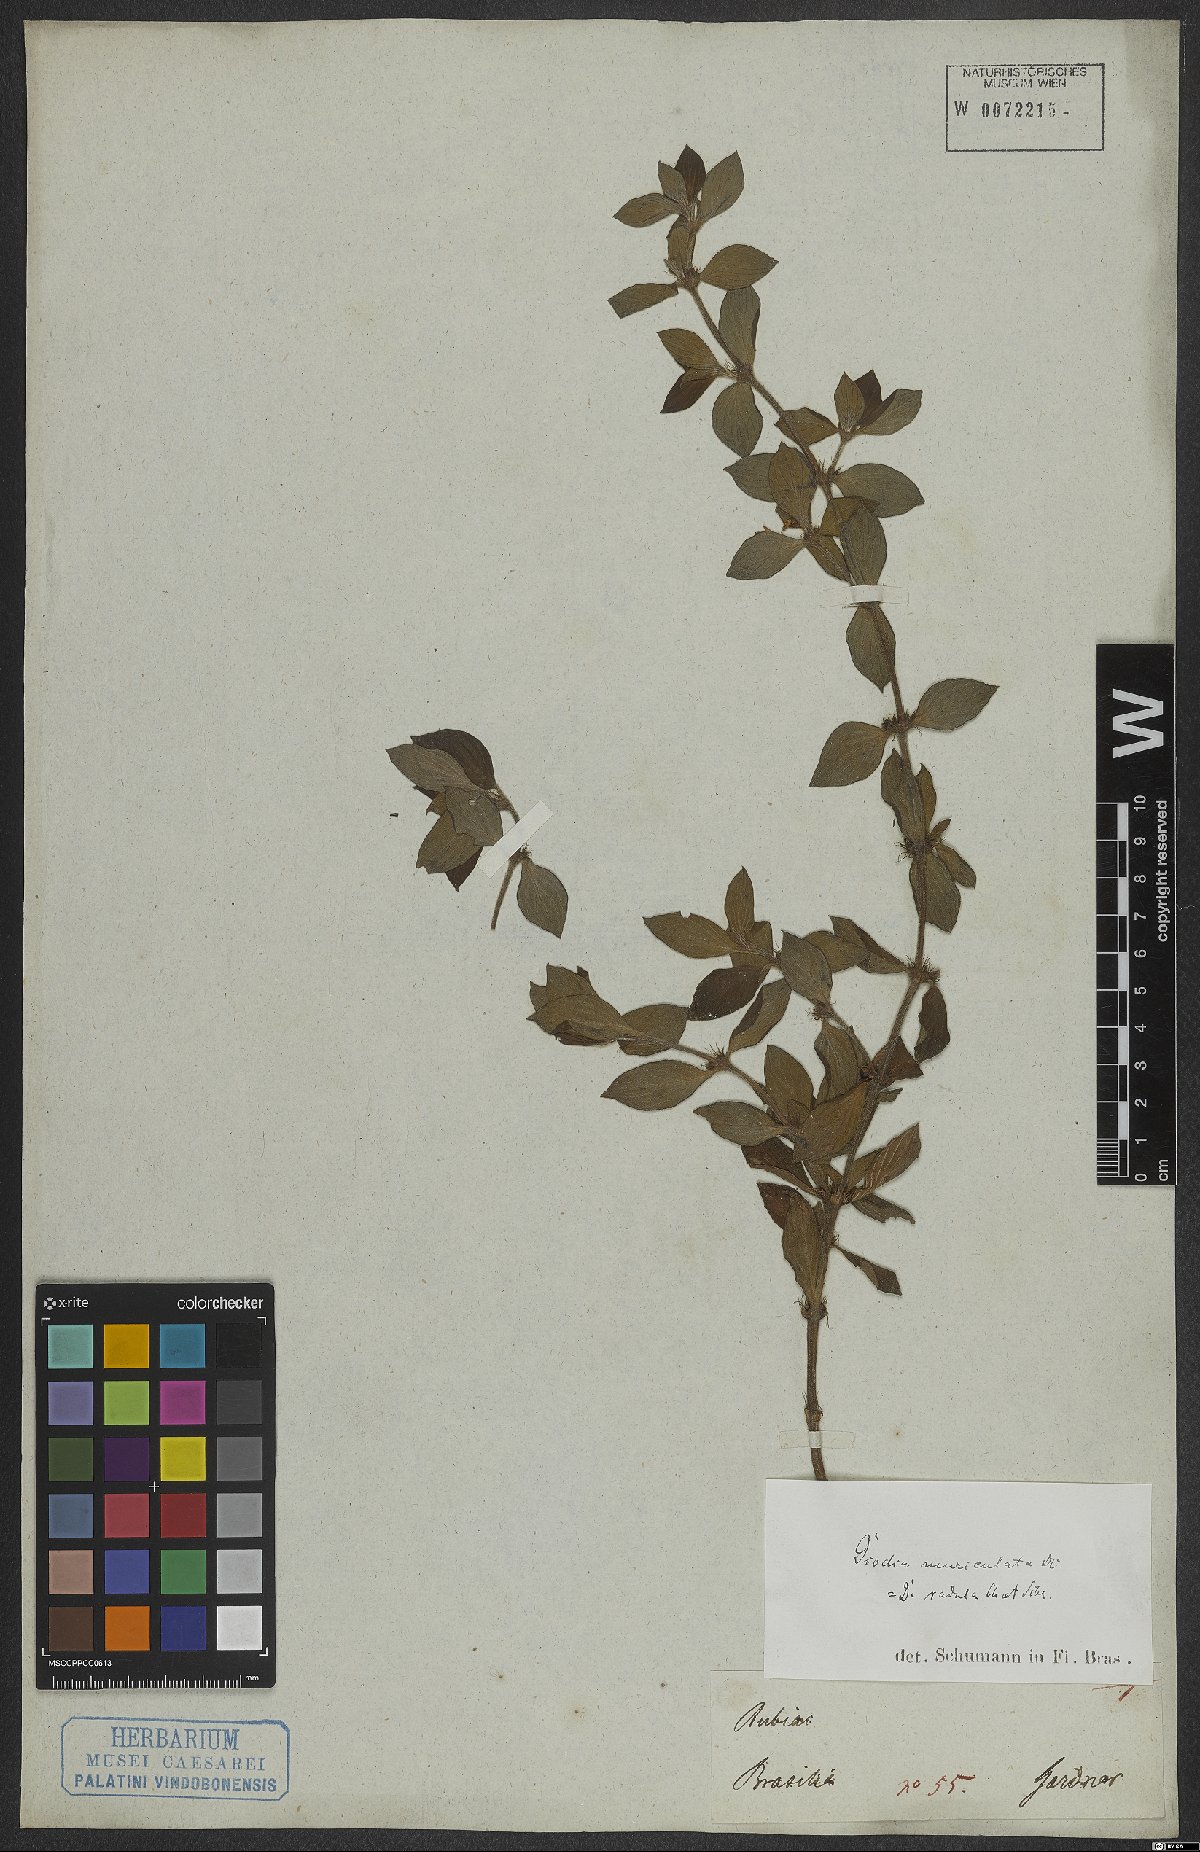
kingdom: Plantae
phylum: Tracheophyta
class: Magnoliopsida
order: Gentianales
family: Rubiaceae
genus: Hexasepalum
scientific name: Hexasepalum radulum
